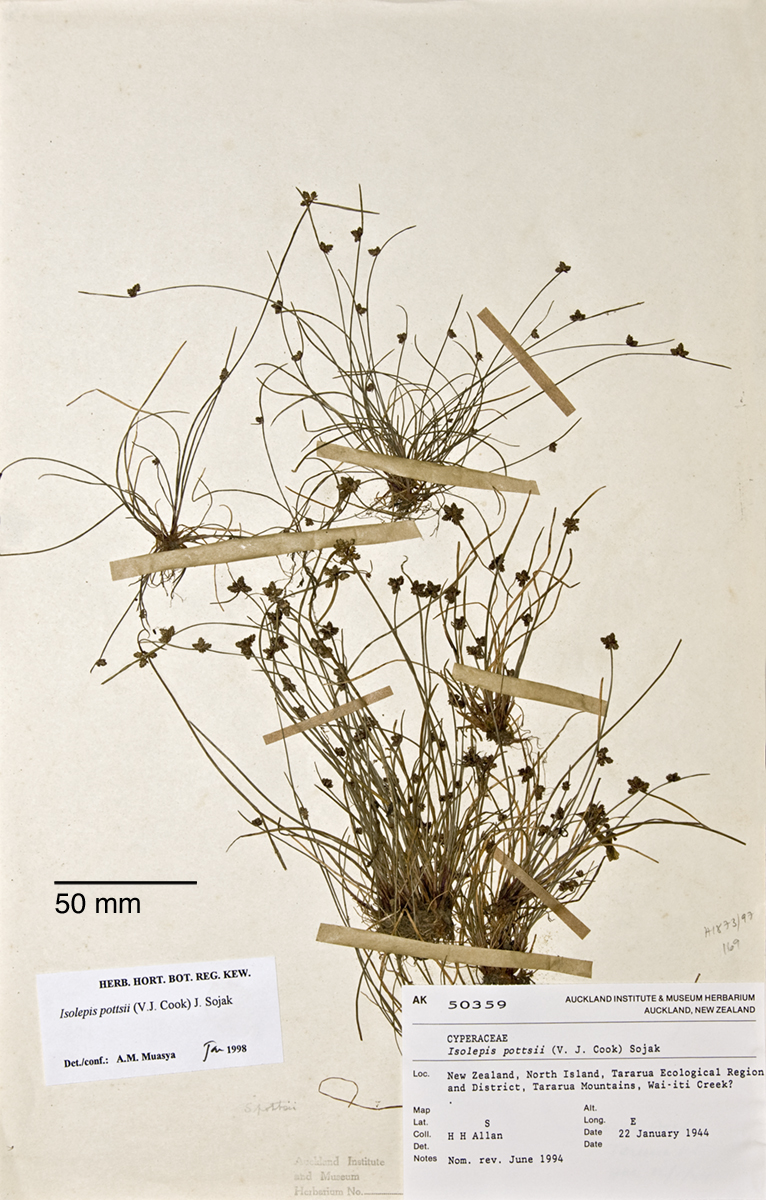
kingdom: Plantae
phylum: Tracheophyta
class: Liliopsida
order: Poales
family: Cyperaceae
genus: Isolepis
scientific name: Isolepis pottsii
